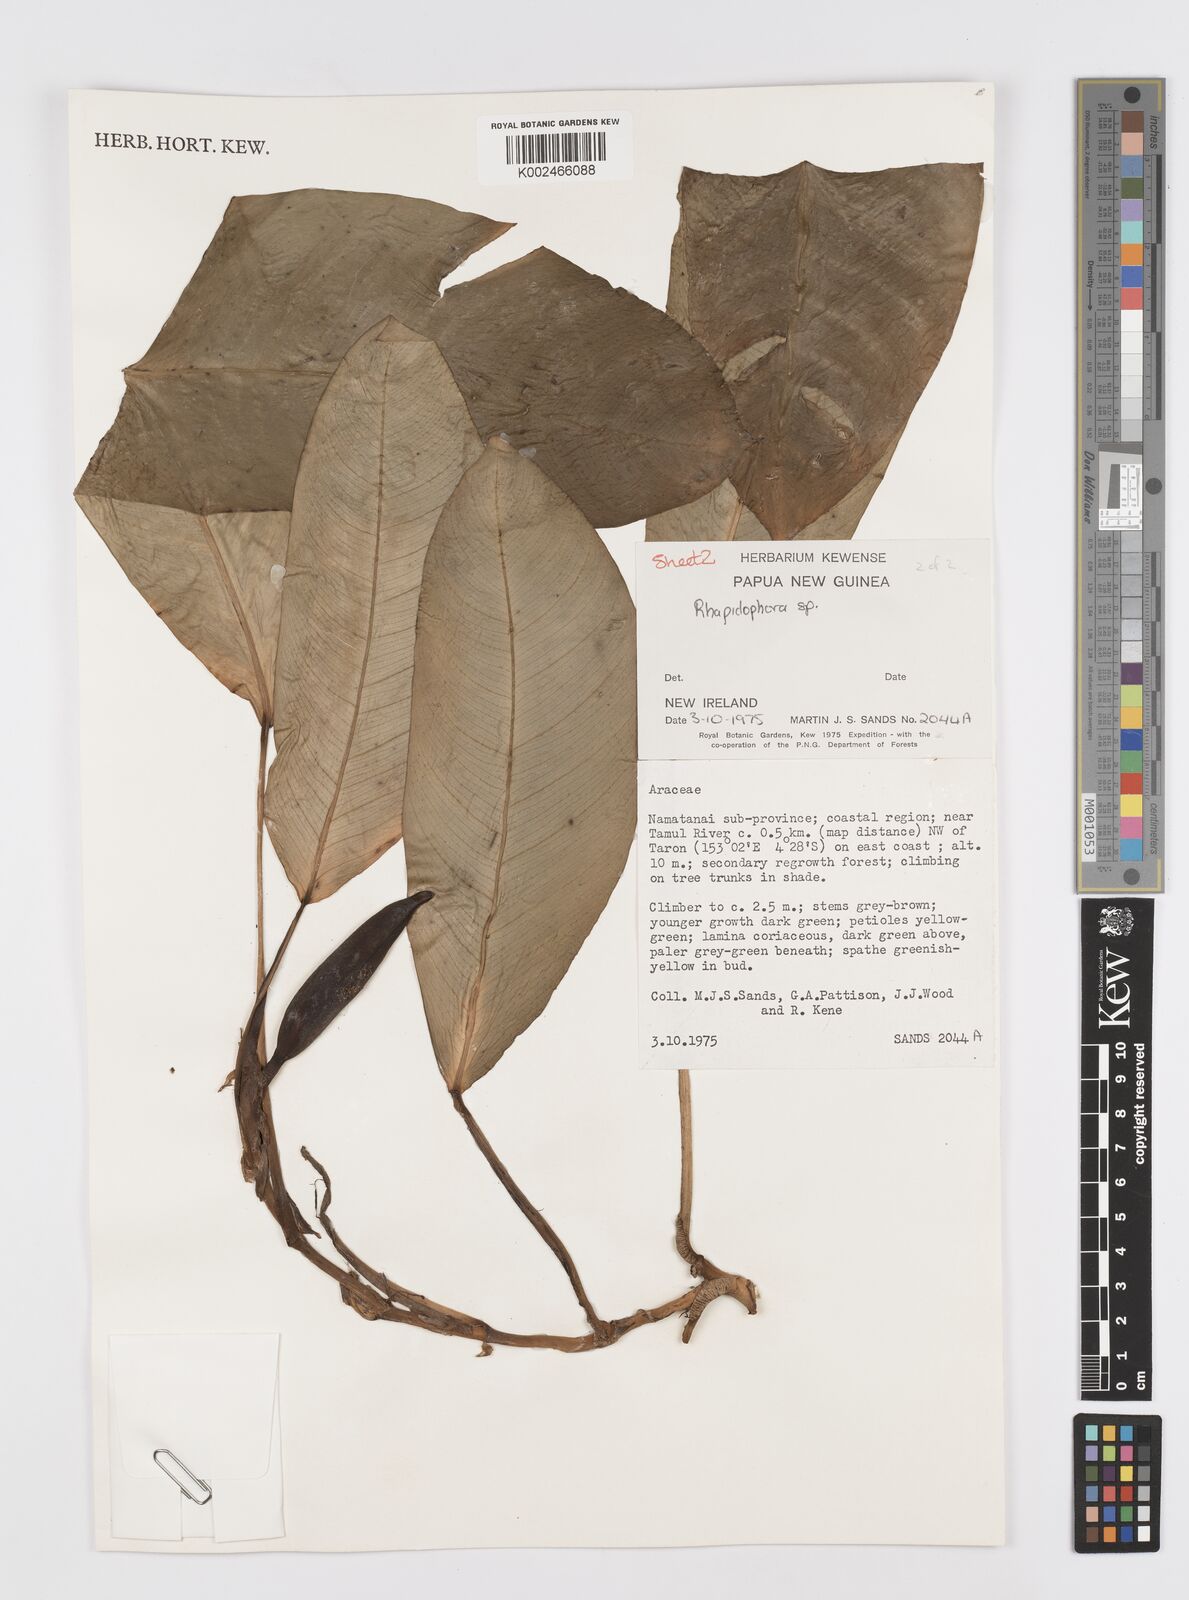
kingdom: Plantae
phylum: Tracheophyta
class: Liliopsida
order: Alismatales
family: Araceae
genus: Rhaphidophora
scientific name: Rhaphidophora schlechteri
